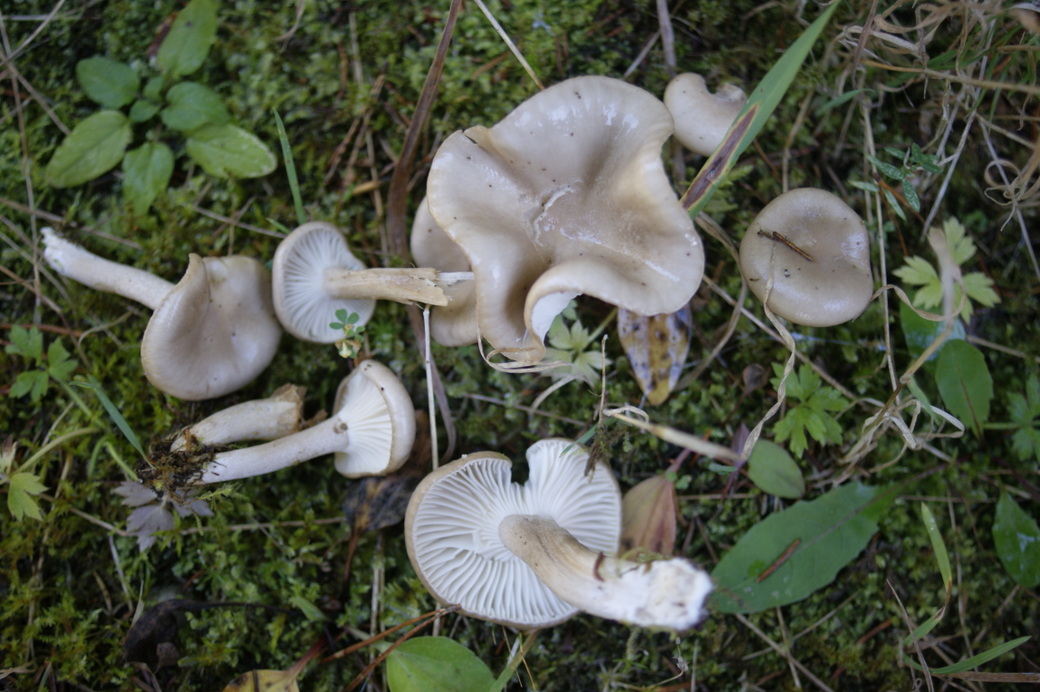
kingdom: Fungi
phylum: Basidiomycota
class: Agaricomycetes
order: Agaricales
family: Hygrophoraceae
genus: Hygrophorus
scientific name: Hygrophorus agathosmus
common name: vellugtende sneglehat
